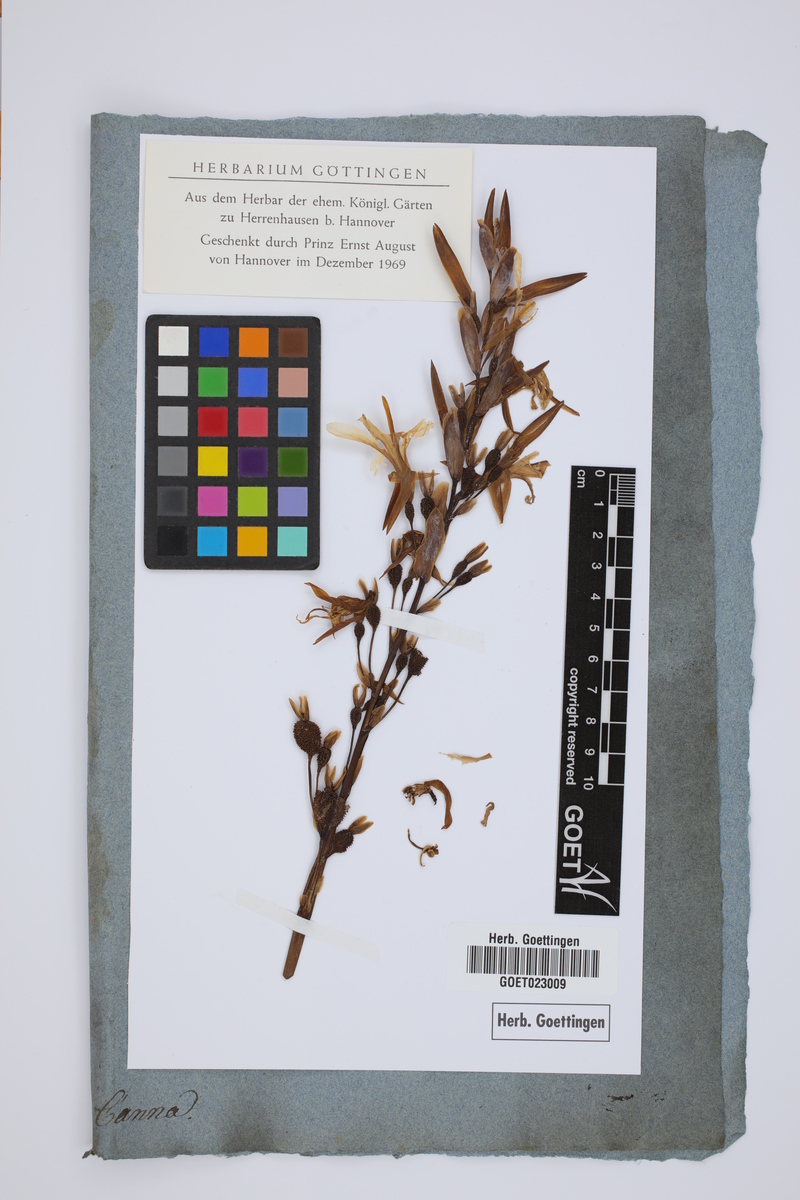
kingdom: Plantae
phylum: Tracheophyta
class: Liliopsida
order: Zingiberales
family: Cannaceae
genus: Canna
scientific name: Canna
